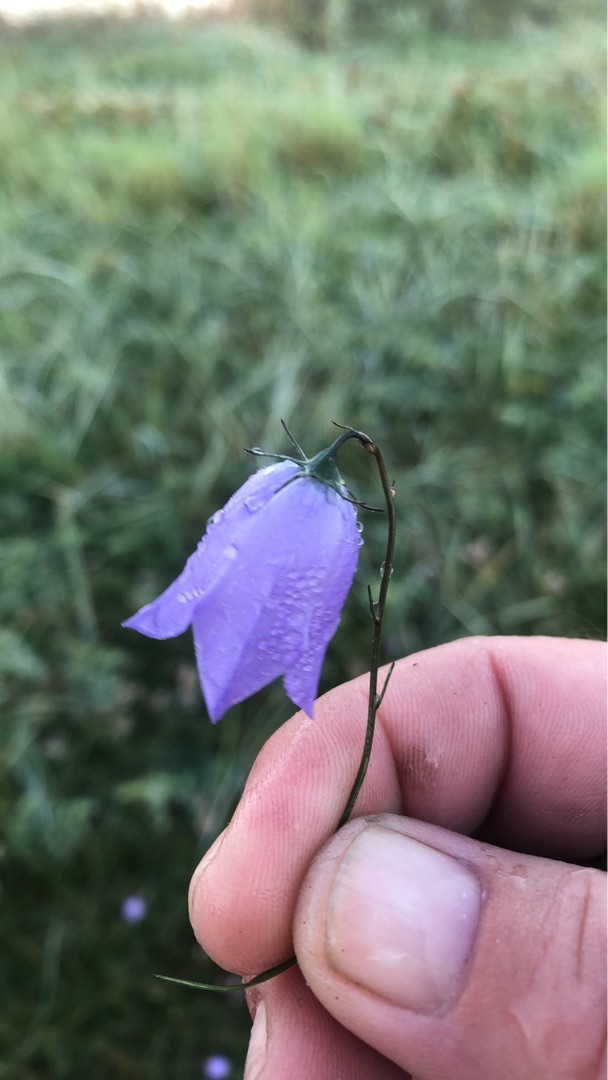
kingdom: Plantae
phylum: Tracheophyta
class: Magnoliopsida
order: Asterales
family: Campanulaceae
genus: Campanula
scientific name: Campanula rotundifolia
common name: Liden klokke
